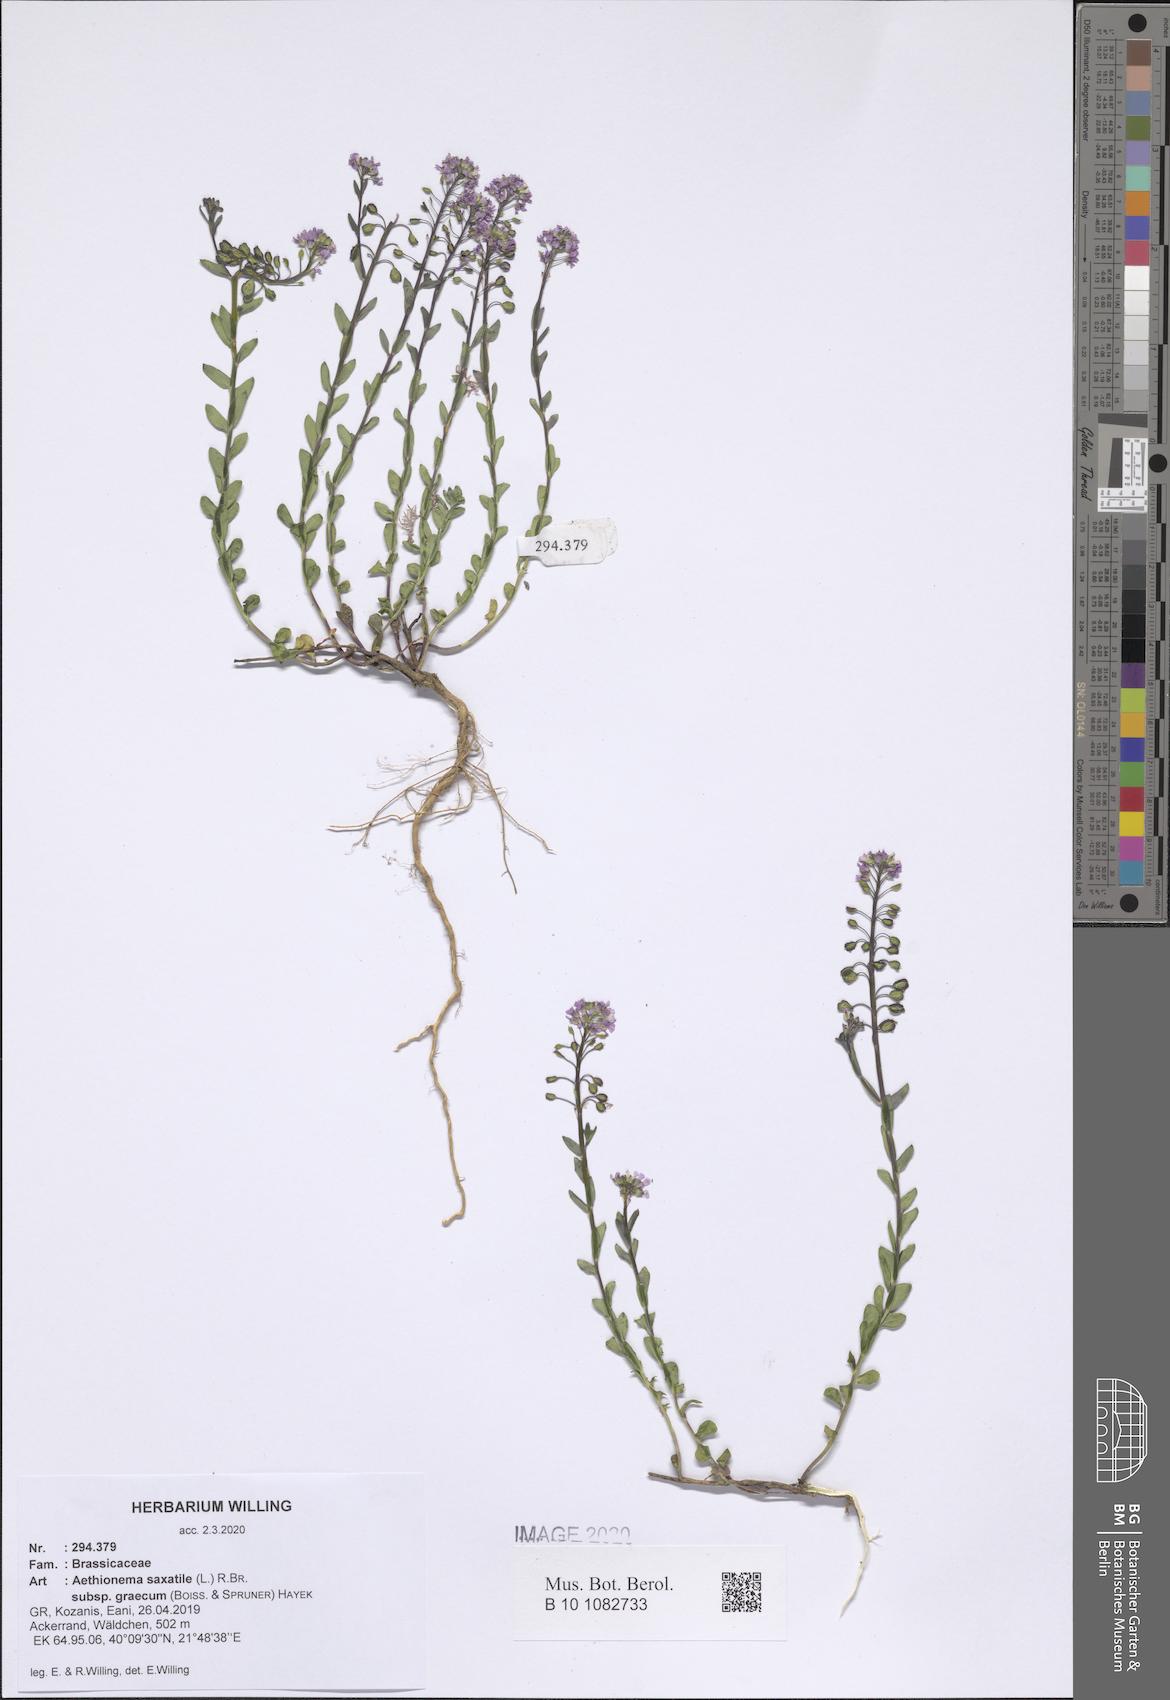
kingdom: Plantae
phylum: Tracheophyta
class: Magnoliopsida
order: Brassicales
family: Brassicaceae
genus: Aethionema
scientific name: Aethionema saxatile
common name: Burnt candytuft
